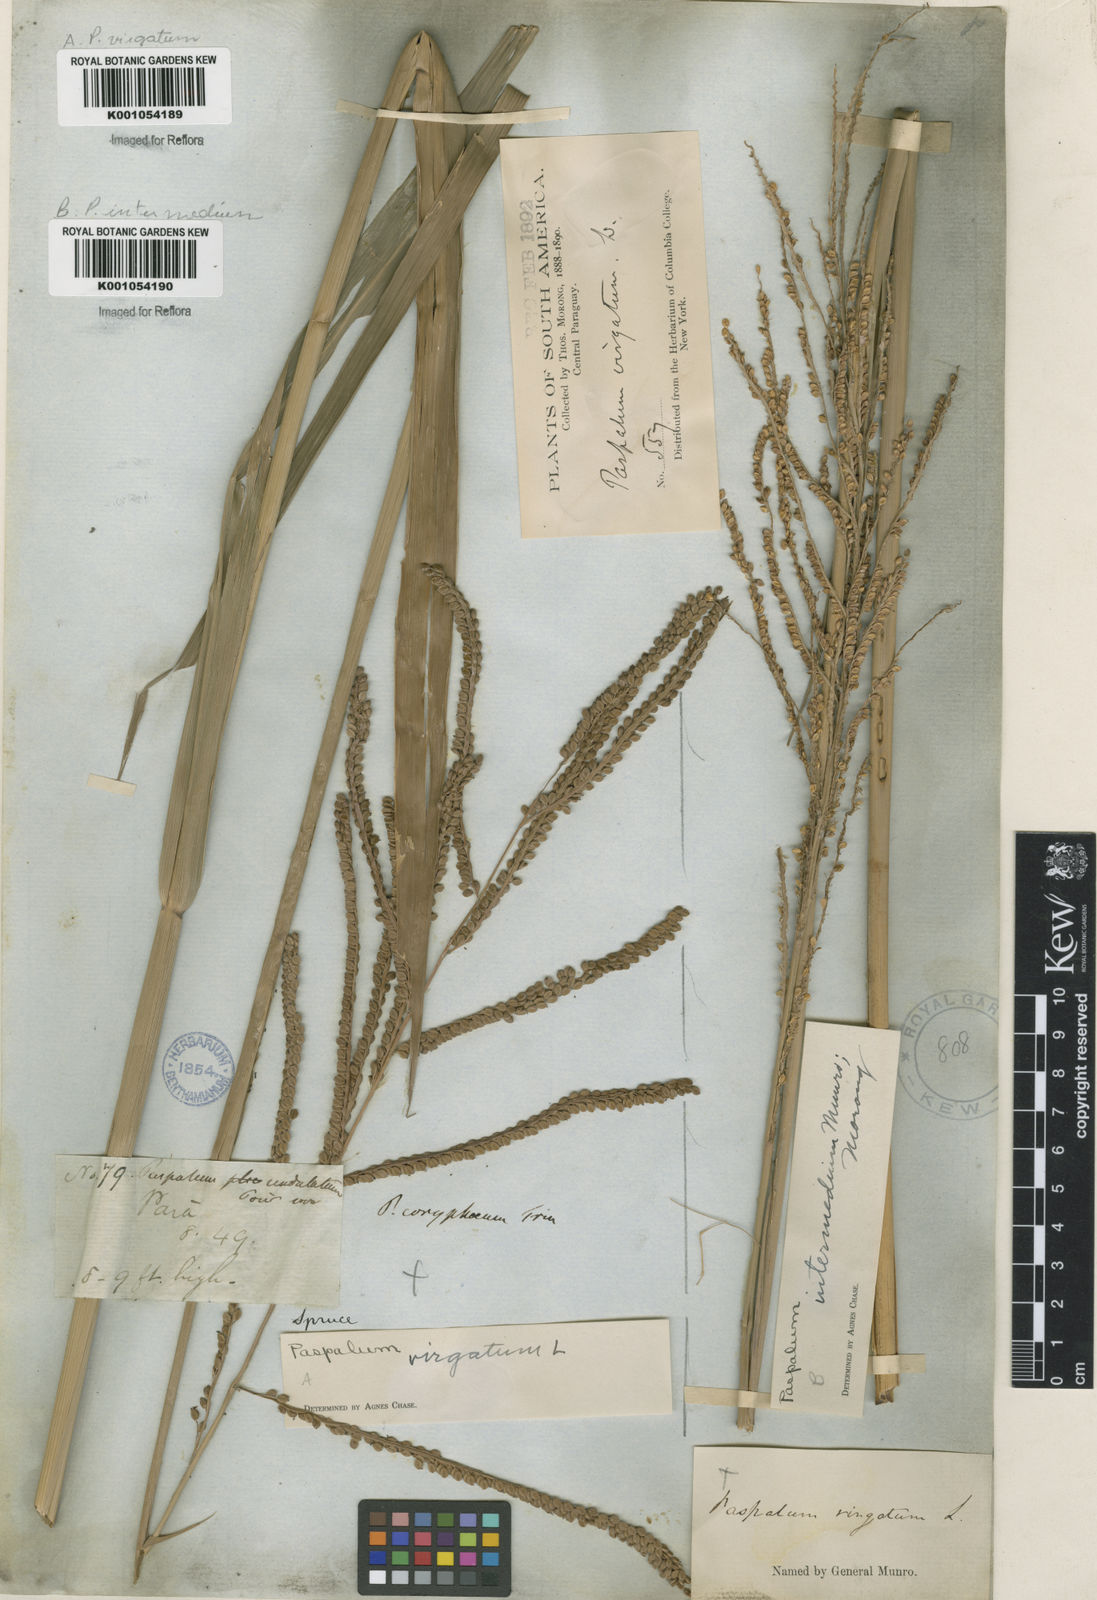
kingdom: Plantae
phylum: Tracheophyta
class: Liliopsida
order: Poales
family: Poaceae
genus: Paspalum
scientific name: Paspalum virgatum
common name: Talquezal
